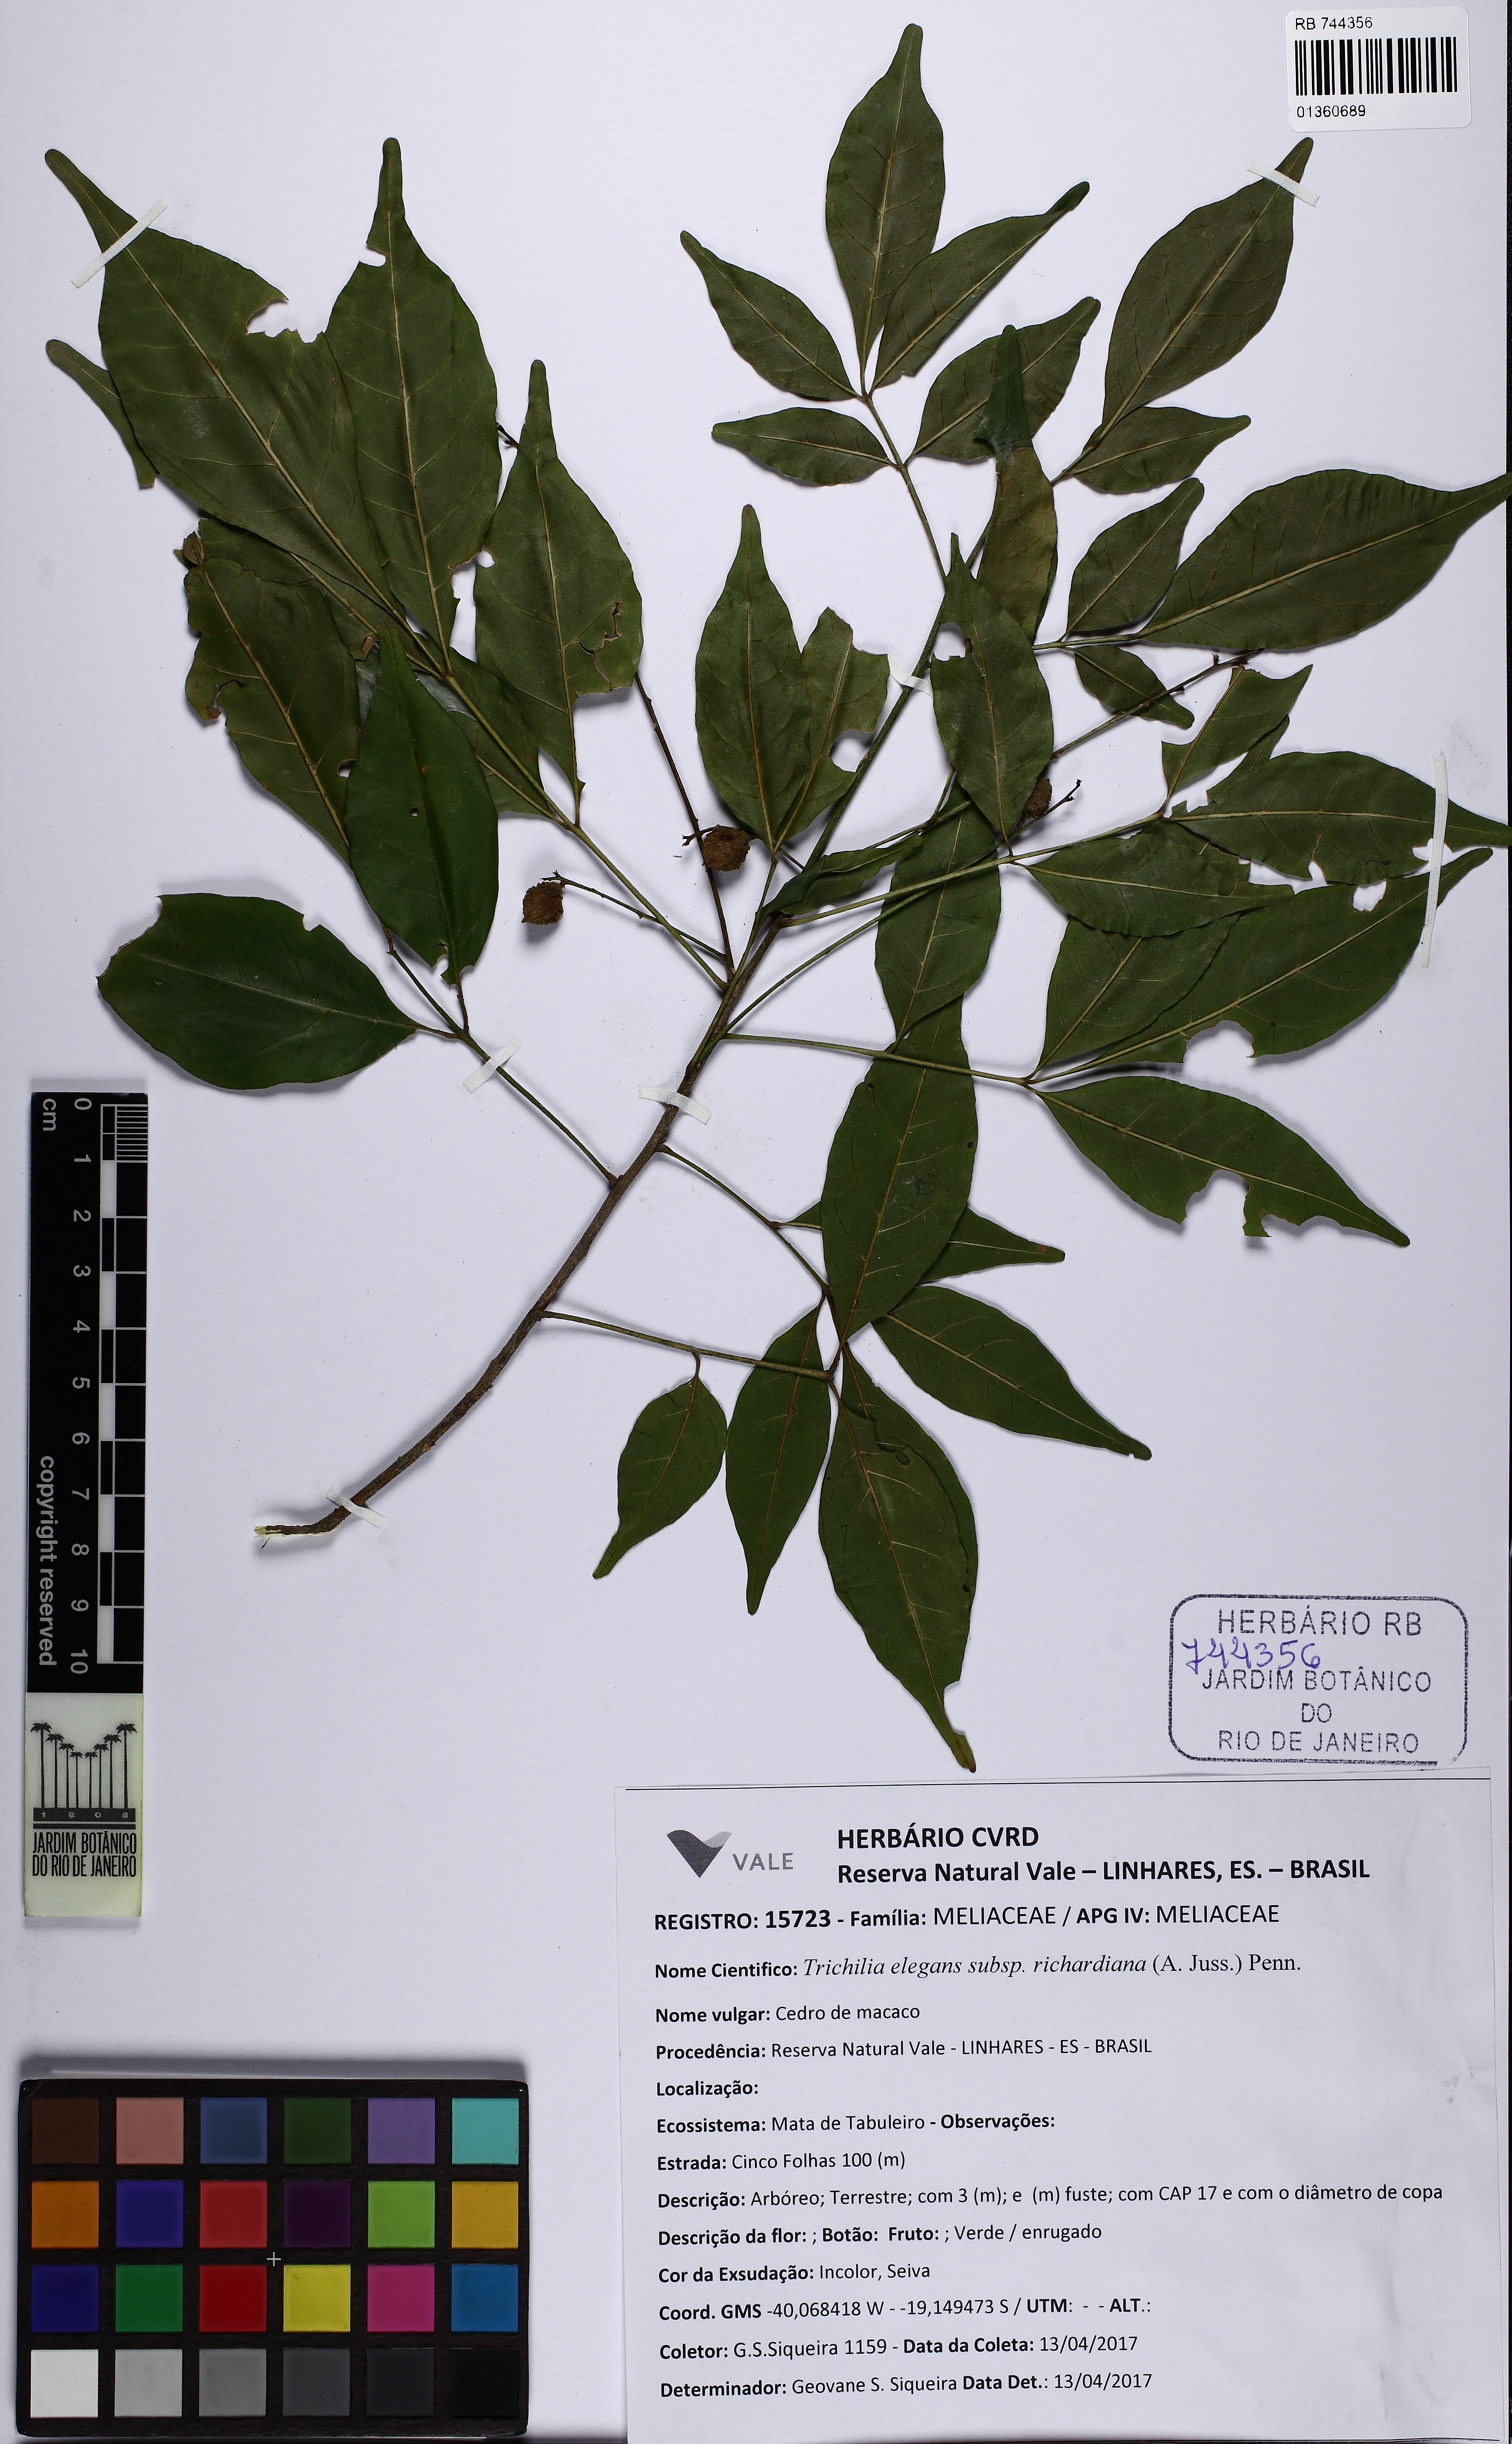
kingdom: Plantae
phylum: Tracheophyta
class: Magnoliopsida
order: Sapindales
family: Meliaceae
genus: Trichilia
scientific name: Trichilia elegans
